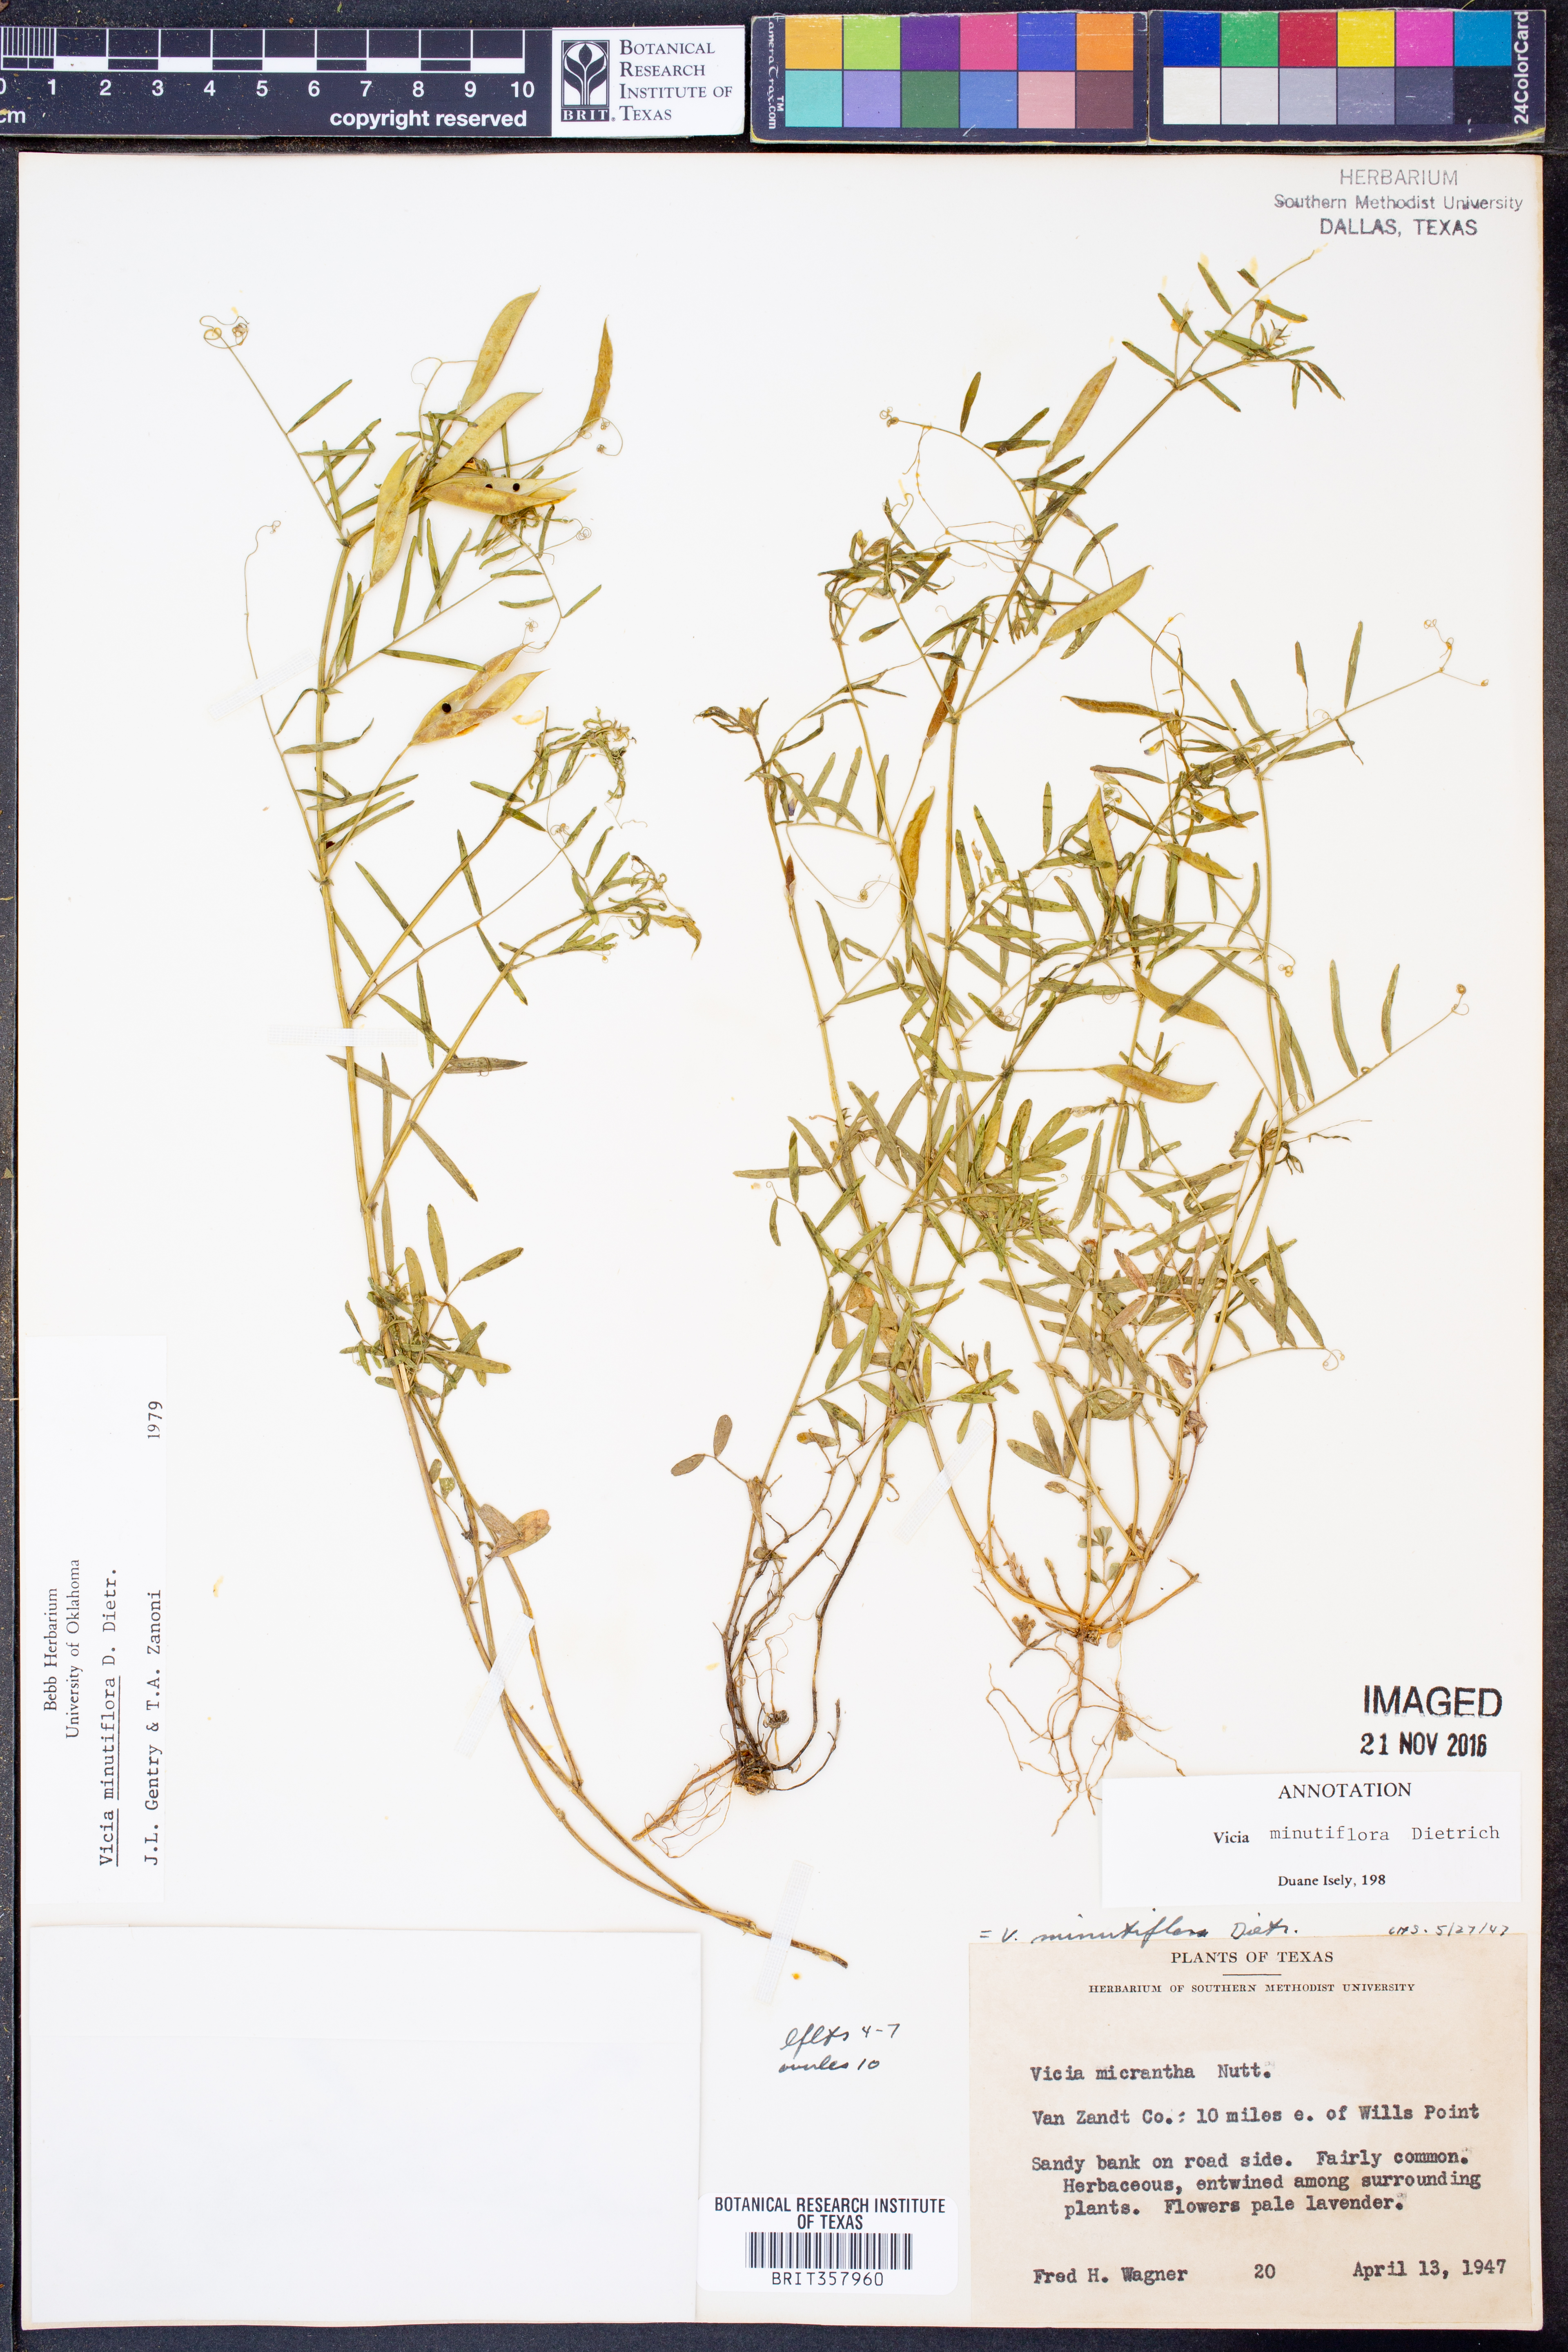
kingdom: Plantae
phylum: Tracheophyta
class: Magnoliopsida
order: Fabales
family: Fabaceae
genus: Vicia
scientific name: Vicia minutiflora
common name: Pygmy-flower vetch
